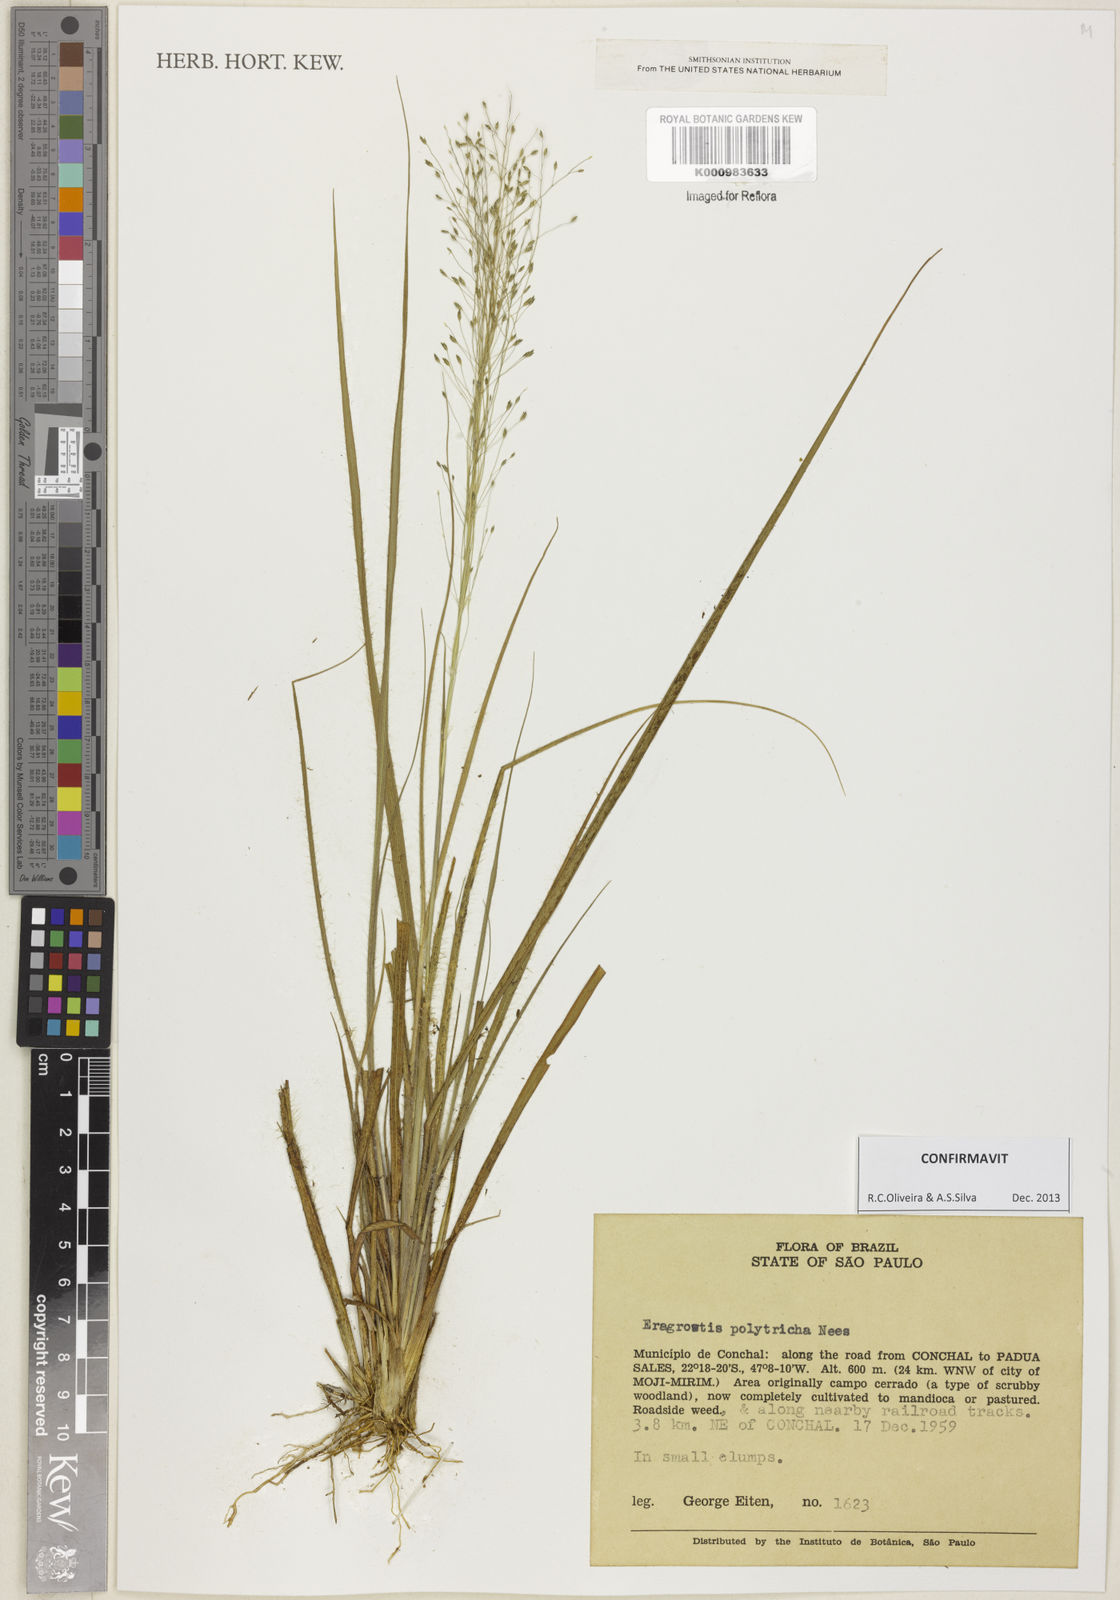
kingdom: Plantae
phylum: Tracheophyta
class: Liliopsida
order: Poales
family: Poaceae
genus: Eragrostis
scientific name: Eragrostis polytricha
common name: Hairy-sheath love grass
